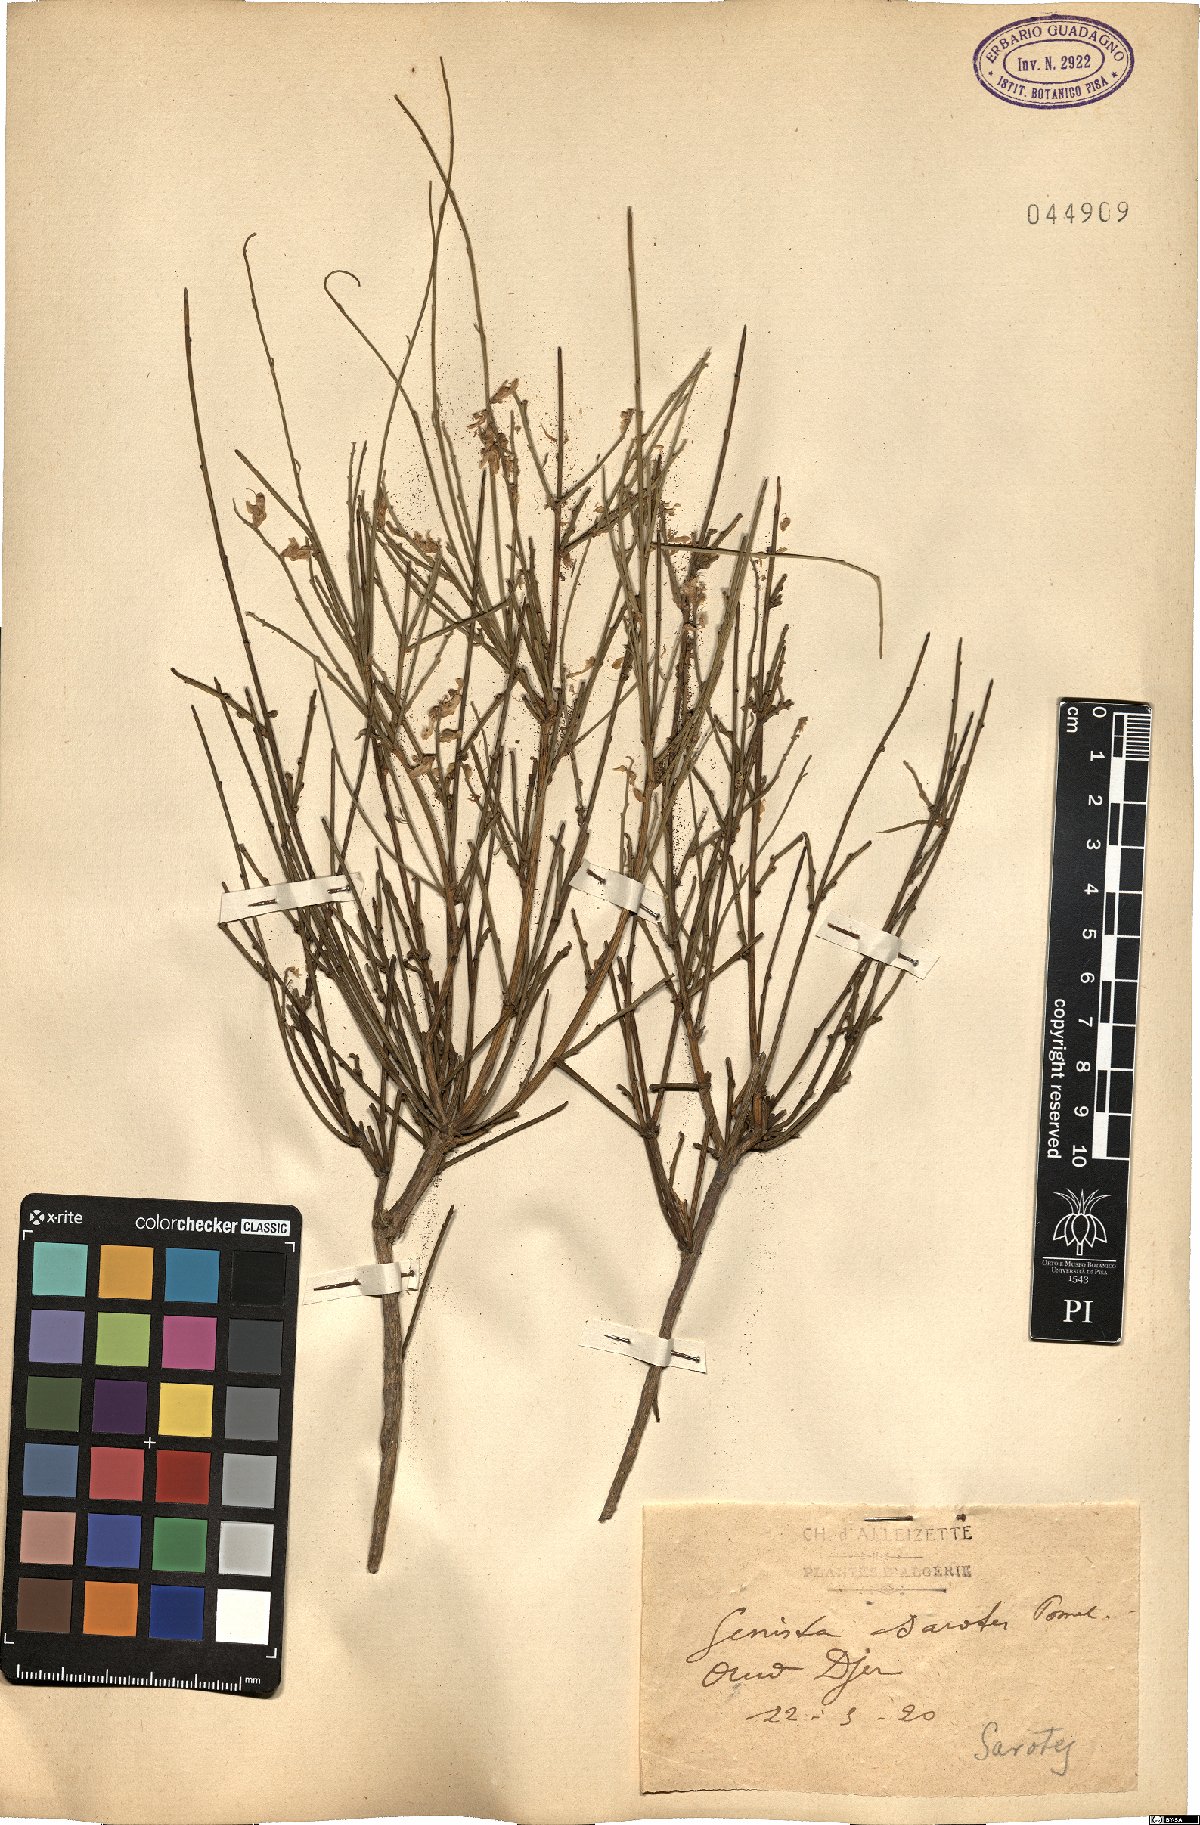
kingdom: Plantae
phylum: Tracheophyta
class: Magnoliopsida
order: Fabales
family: Fabaceae
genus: Genista
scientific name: Genista numidica
